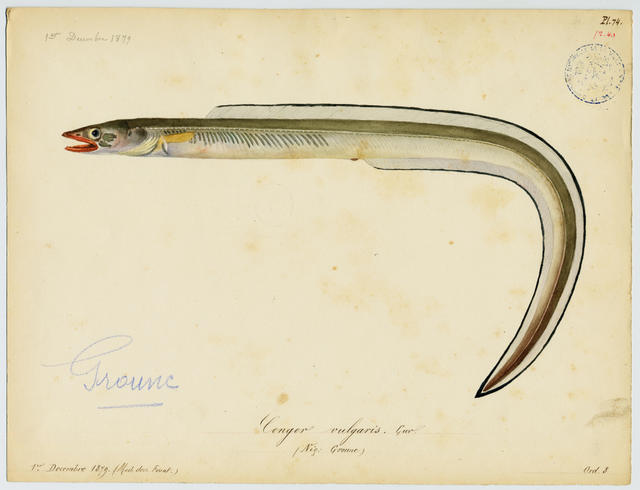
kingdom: Animalia
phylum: Chordata
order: Anguilliformes
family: Congridae
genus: Conger
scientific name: Conger conger
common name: Conger eel
